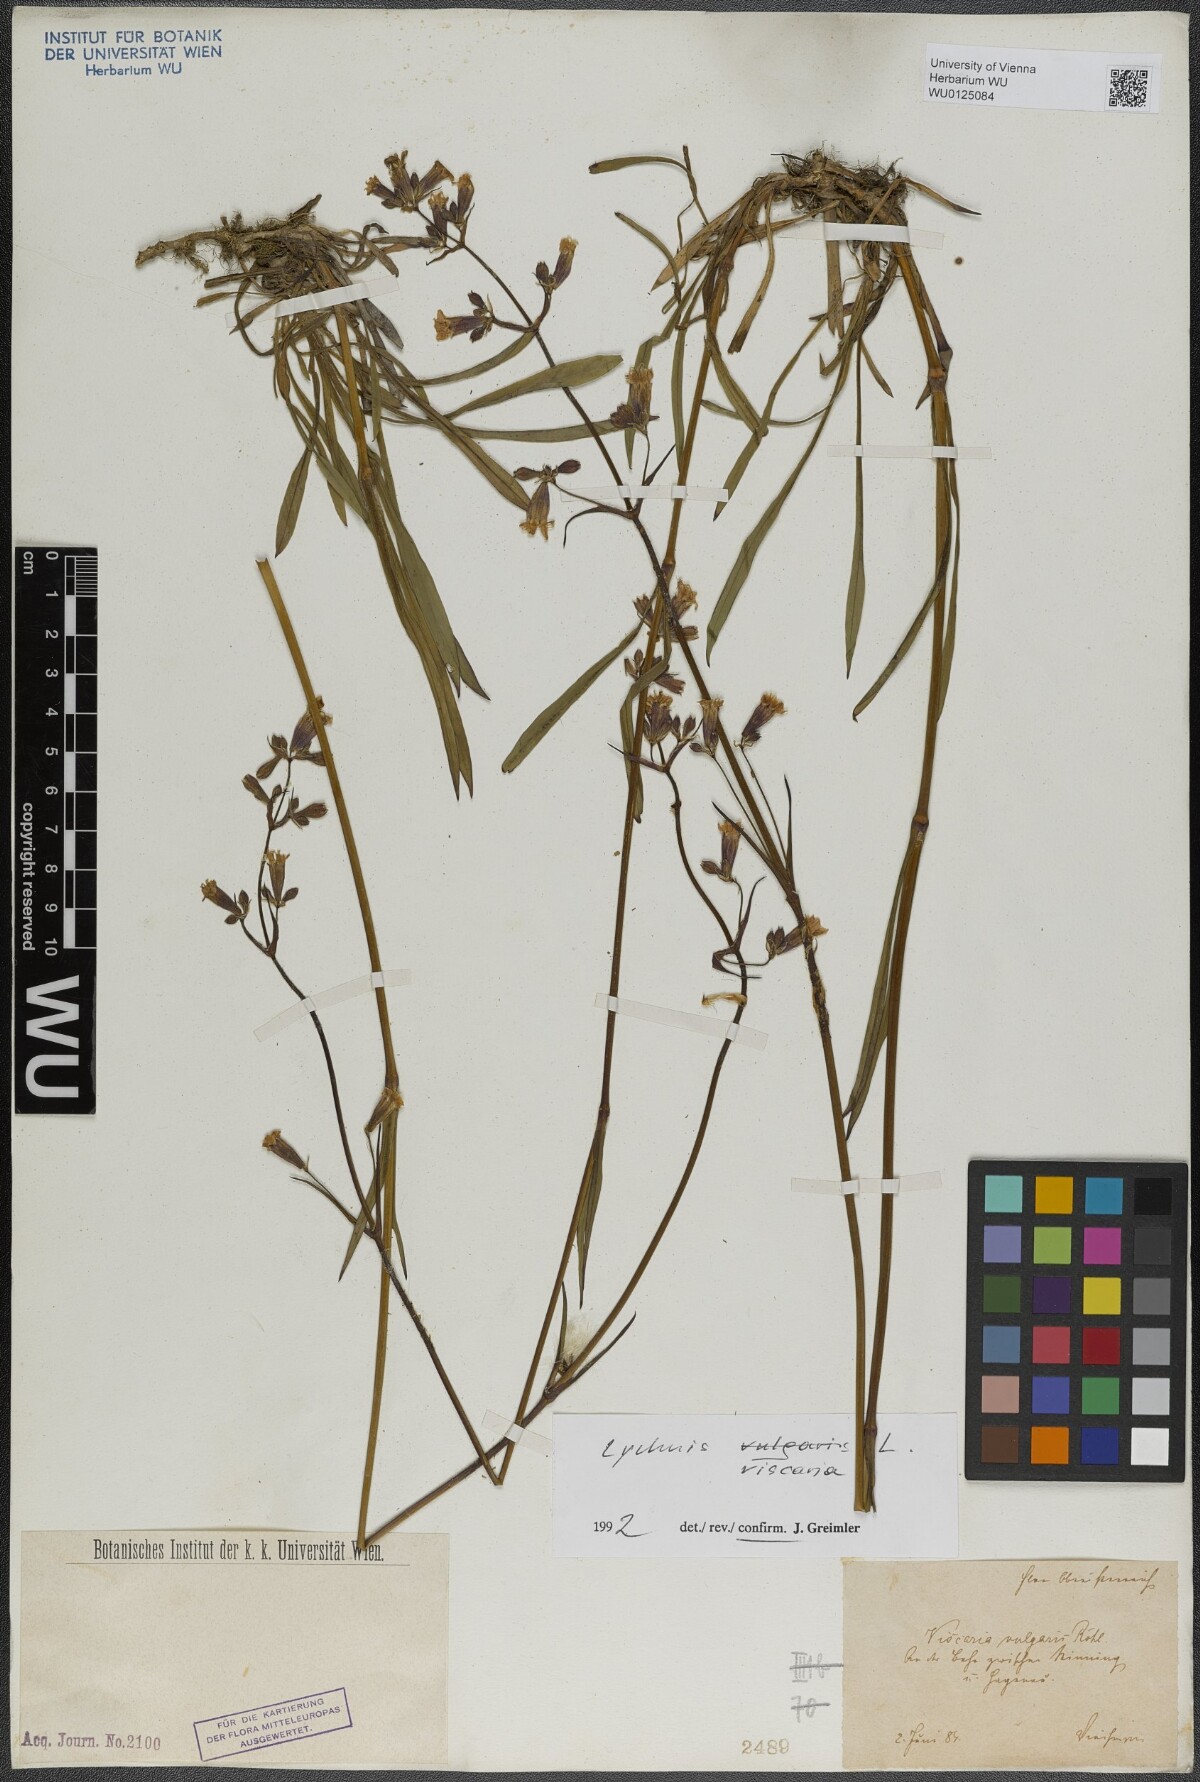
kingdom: Plantae
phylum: Tracheophyta
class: Magnoliopsida
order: Caryophyllales
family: Caryophyllaceae
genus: Viscaria
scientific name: Viscaria vulgaris
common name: Clammy campion
